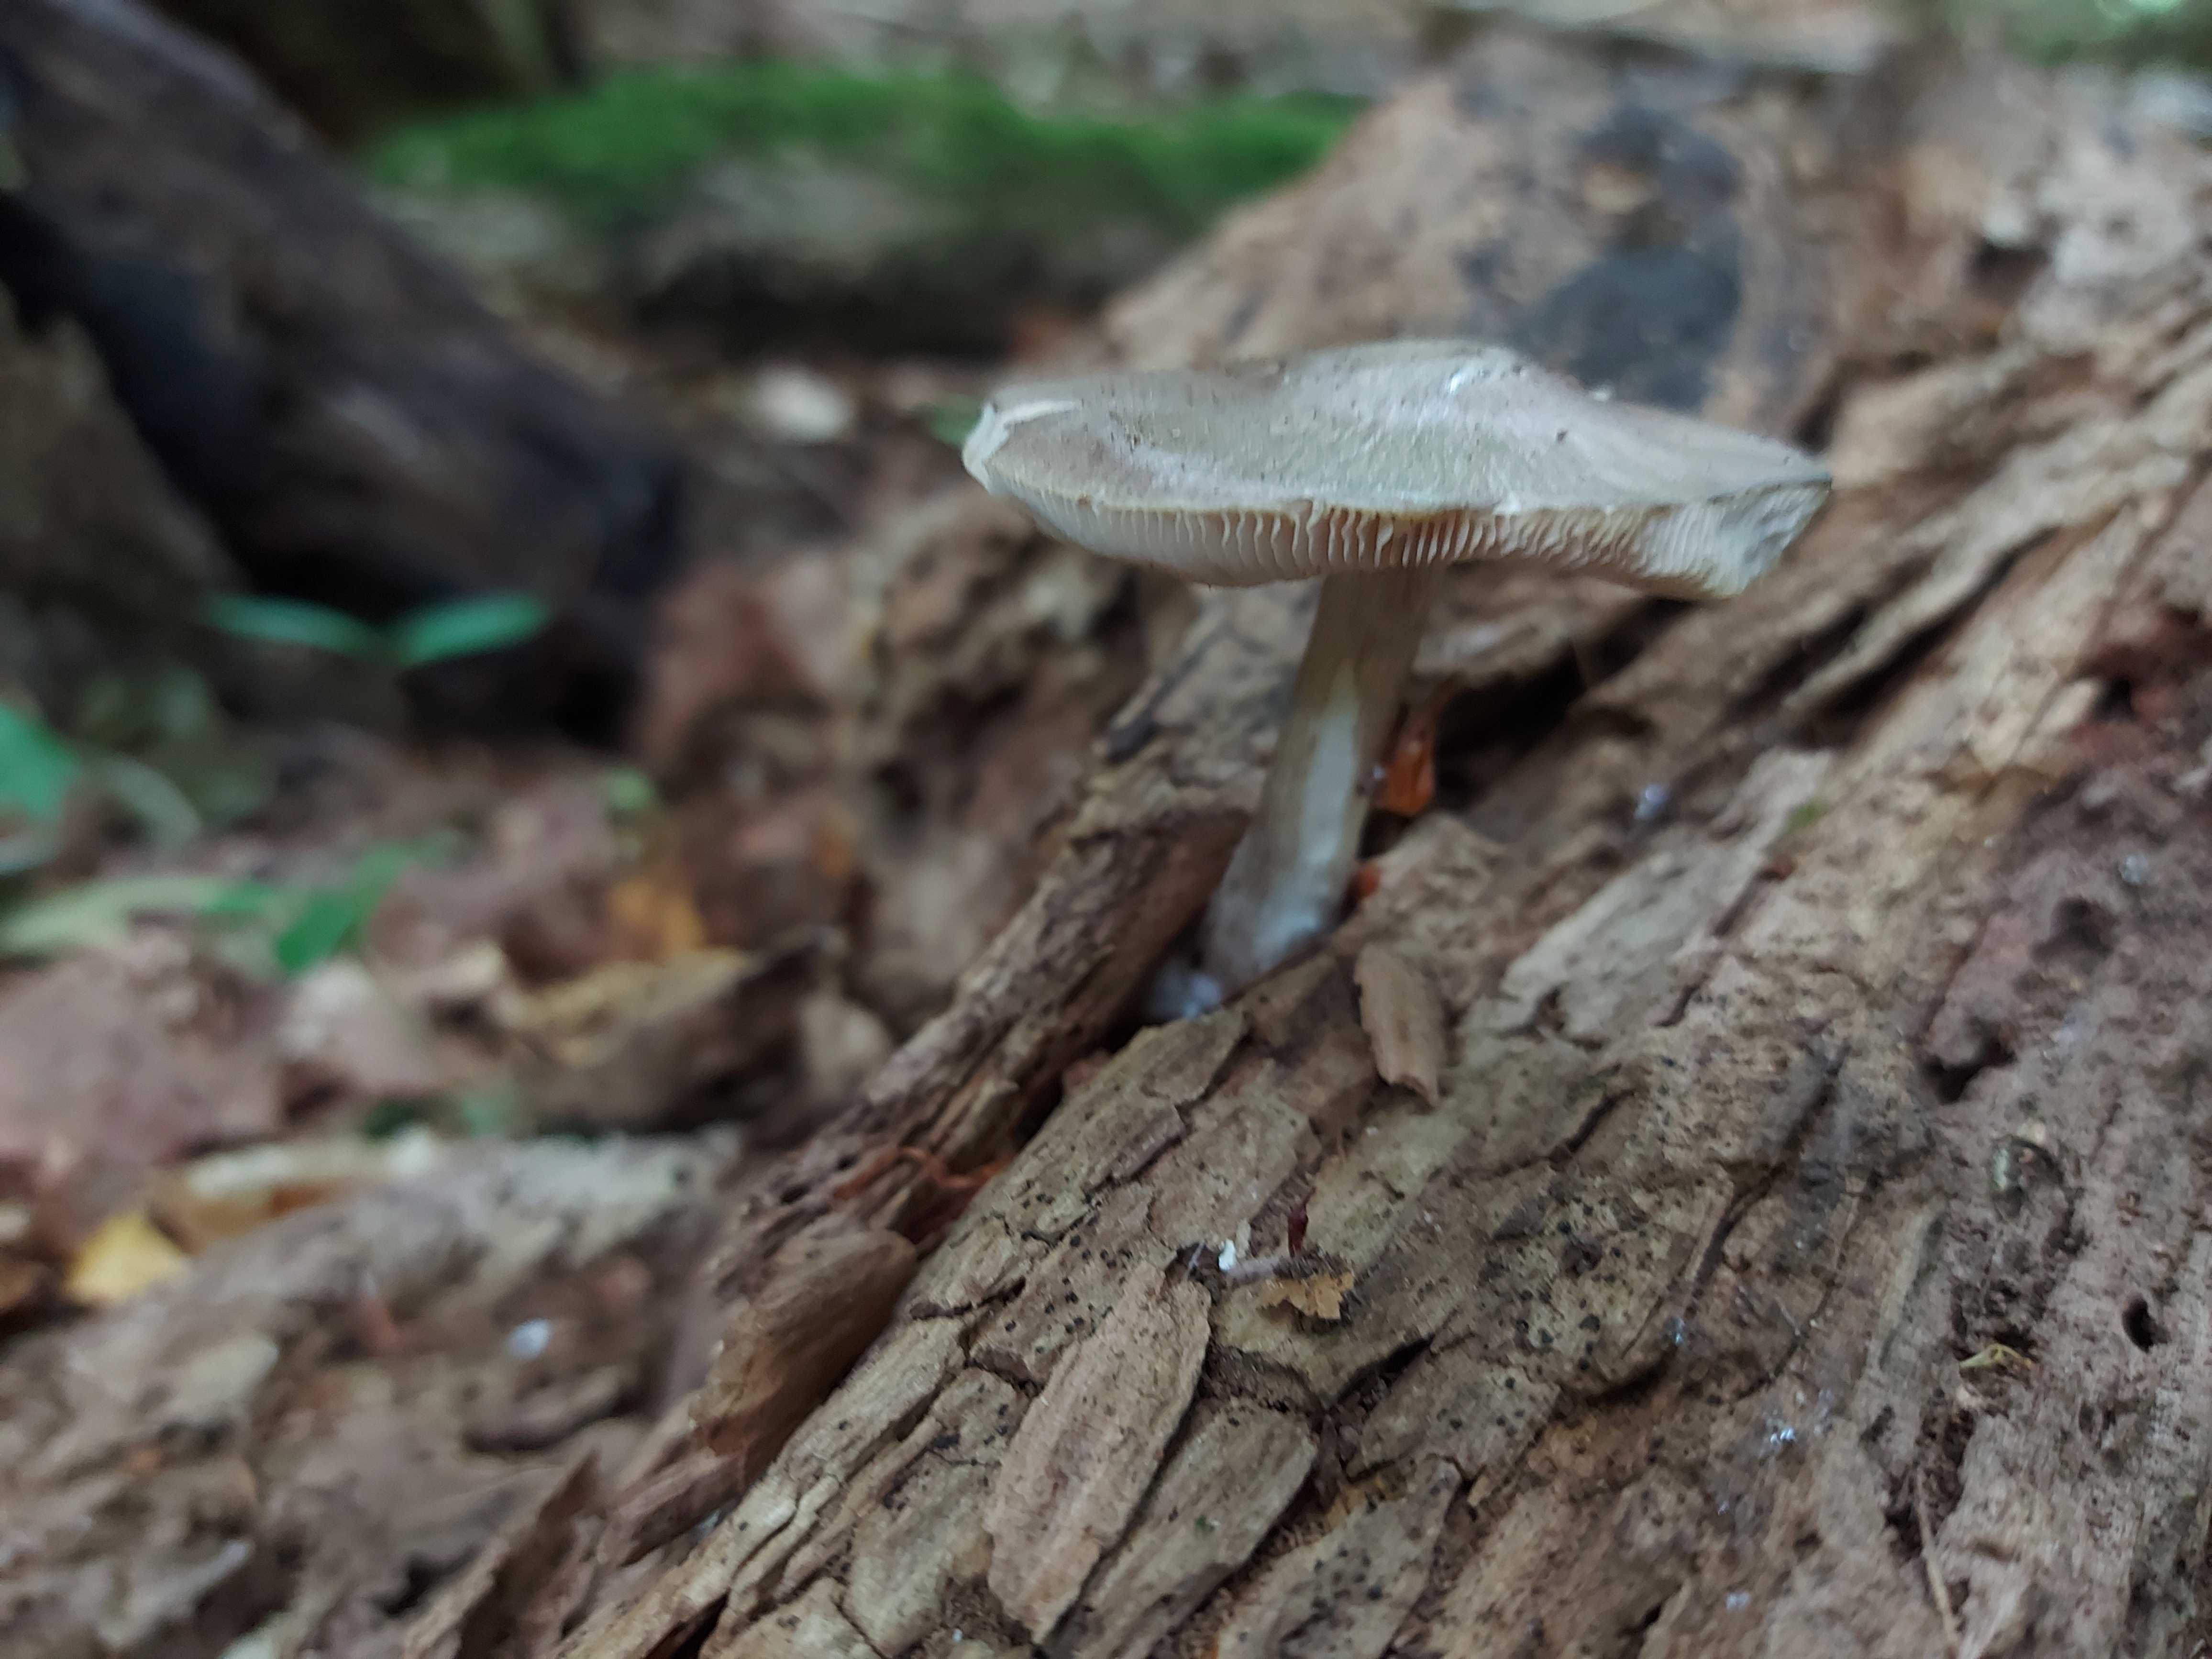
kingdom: Fungi
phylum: Basidiomycota
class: Agaricomycetes
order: Agaricales
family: Pluteaceae
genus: Pluteus
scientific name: Pluteus salicinus
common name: stiv skærmhat
